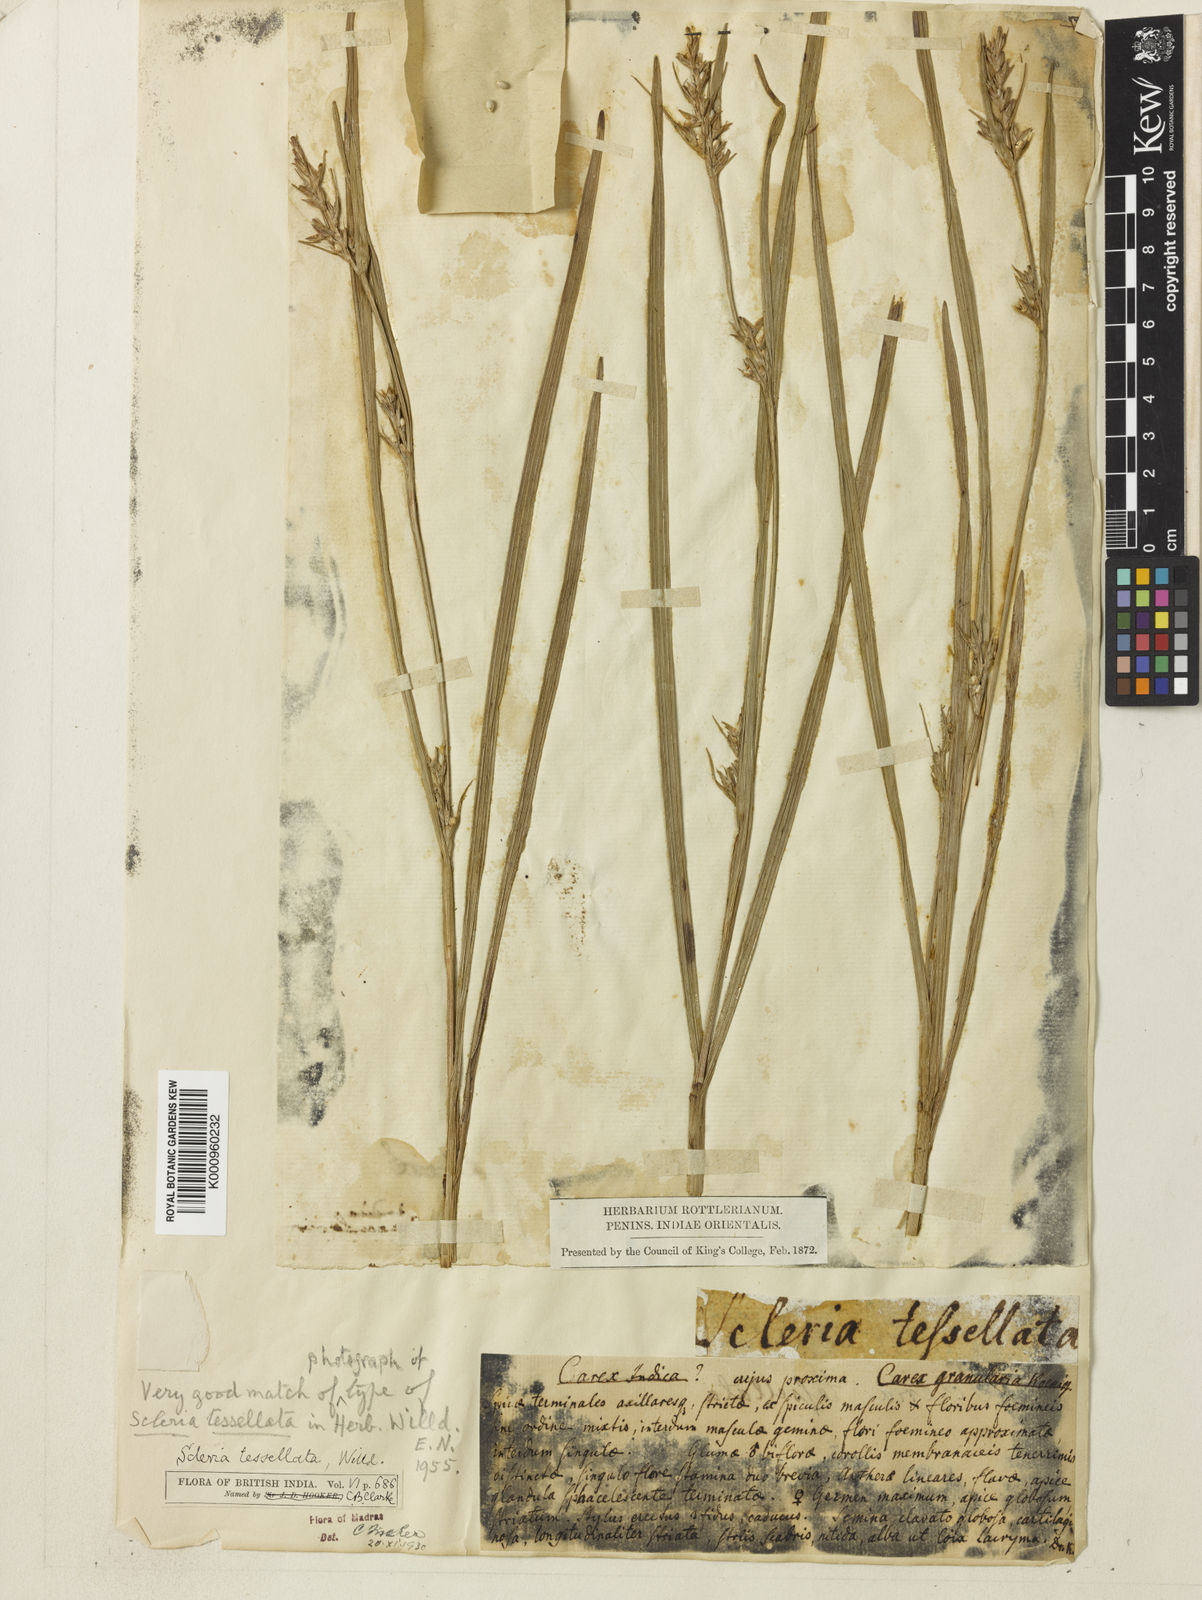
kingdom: Plantae
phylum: Tracheophyta
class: Liliopsida
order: Poales
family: Cyperaceae
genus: Scleria
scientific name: Scleria tessellata
